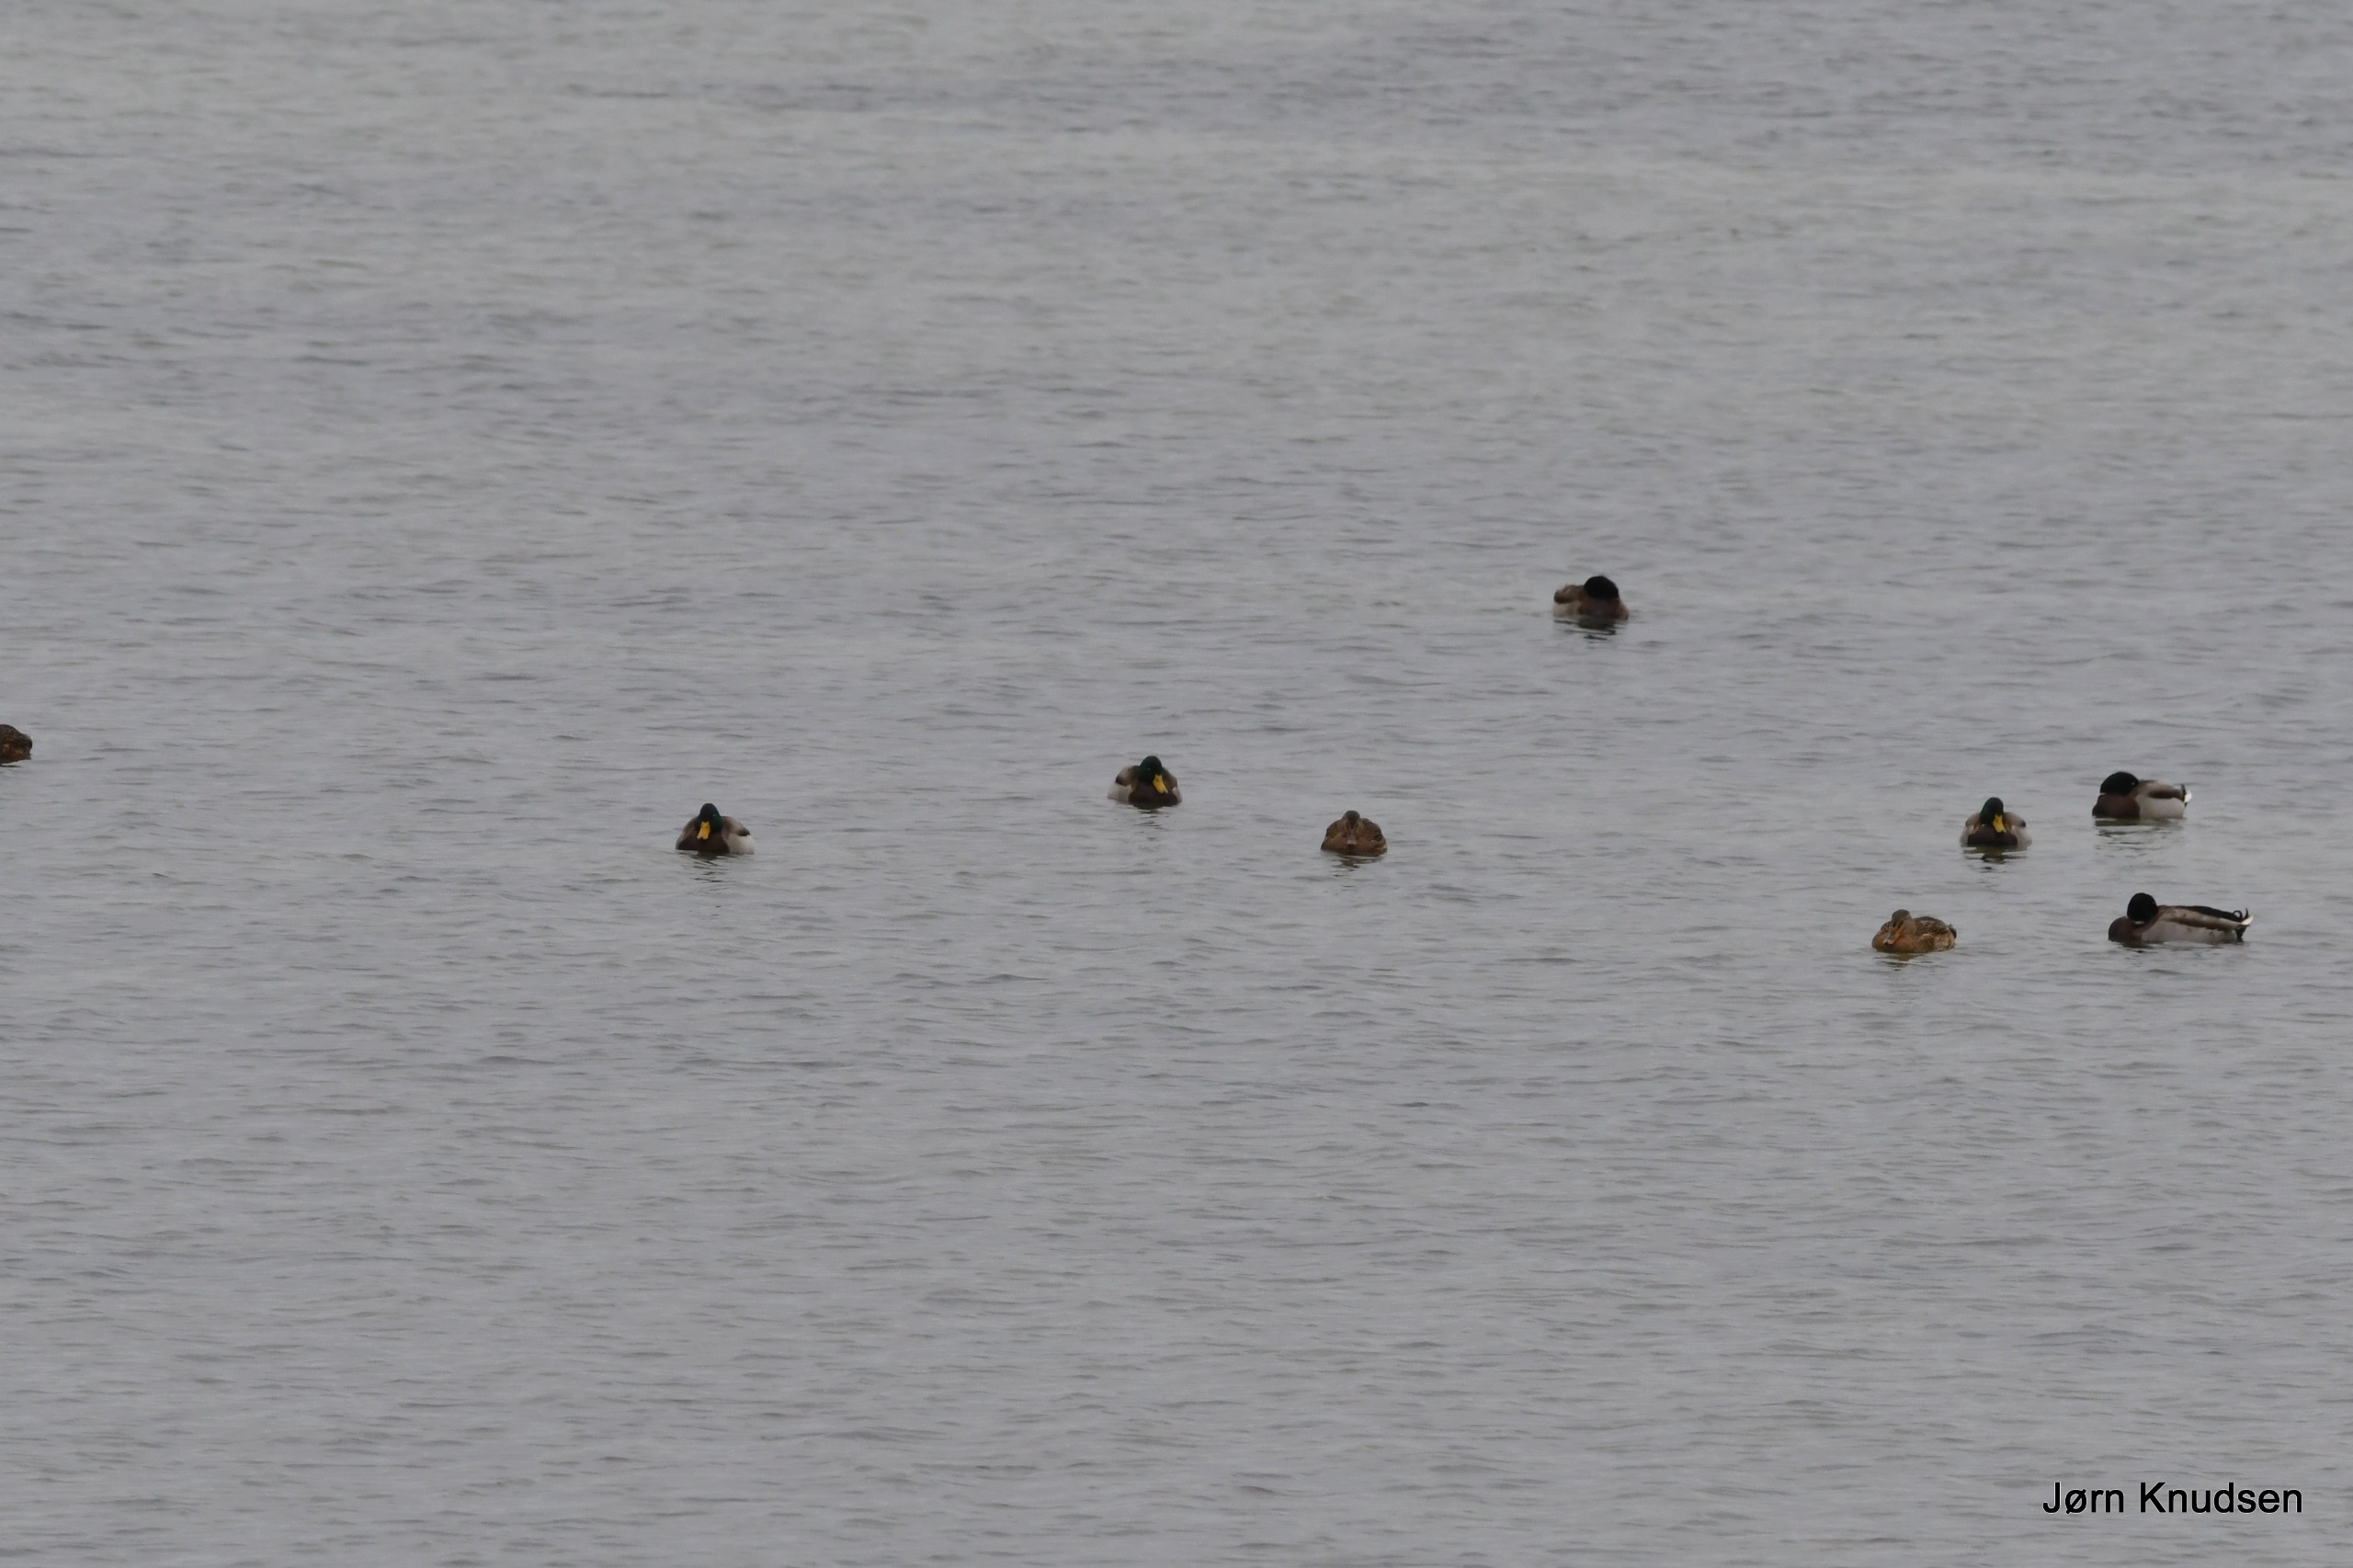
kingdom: Animalia
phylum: Chordata
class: Aves
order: Anseriformes
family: Anatidae
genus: Anas
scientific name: Anas platyrhynchos
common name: Gråand
